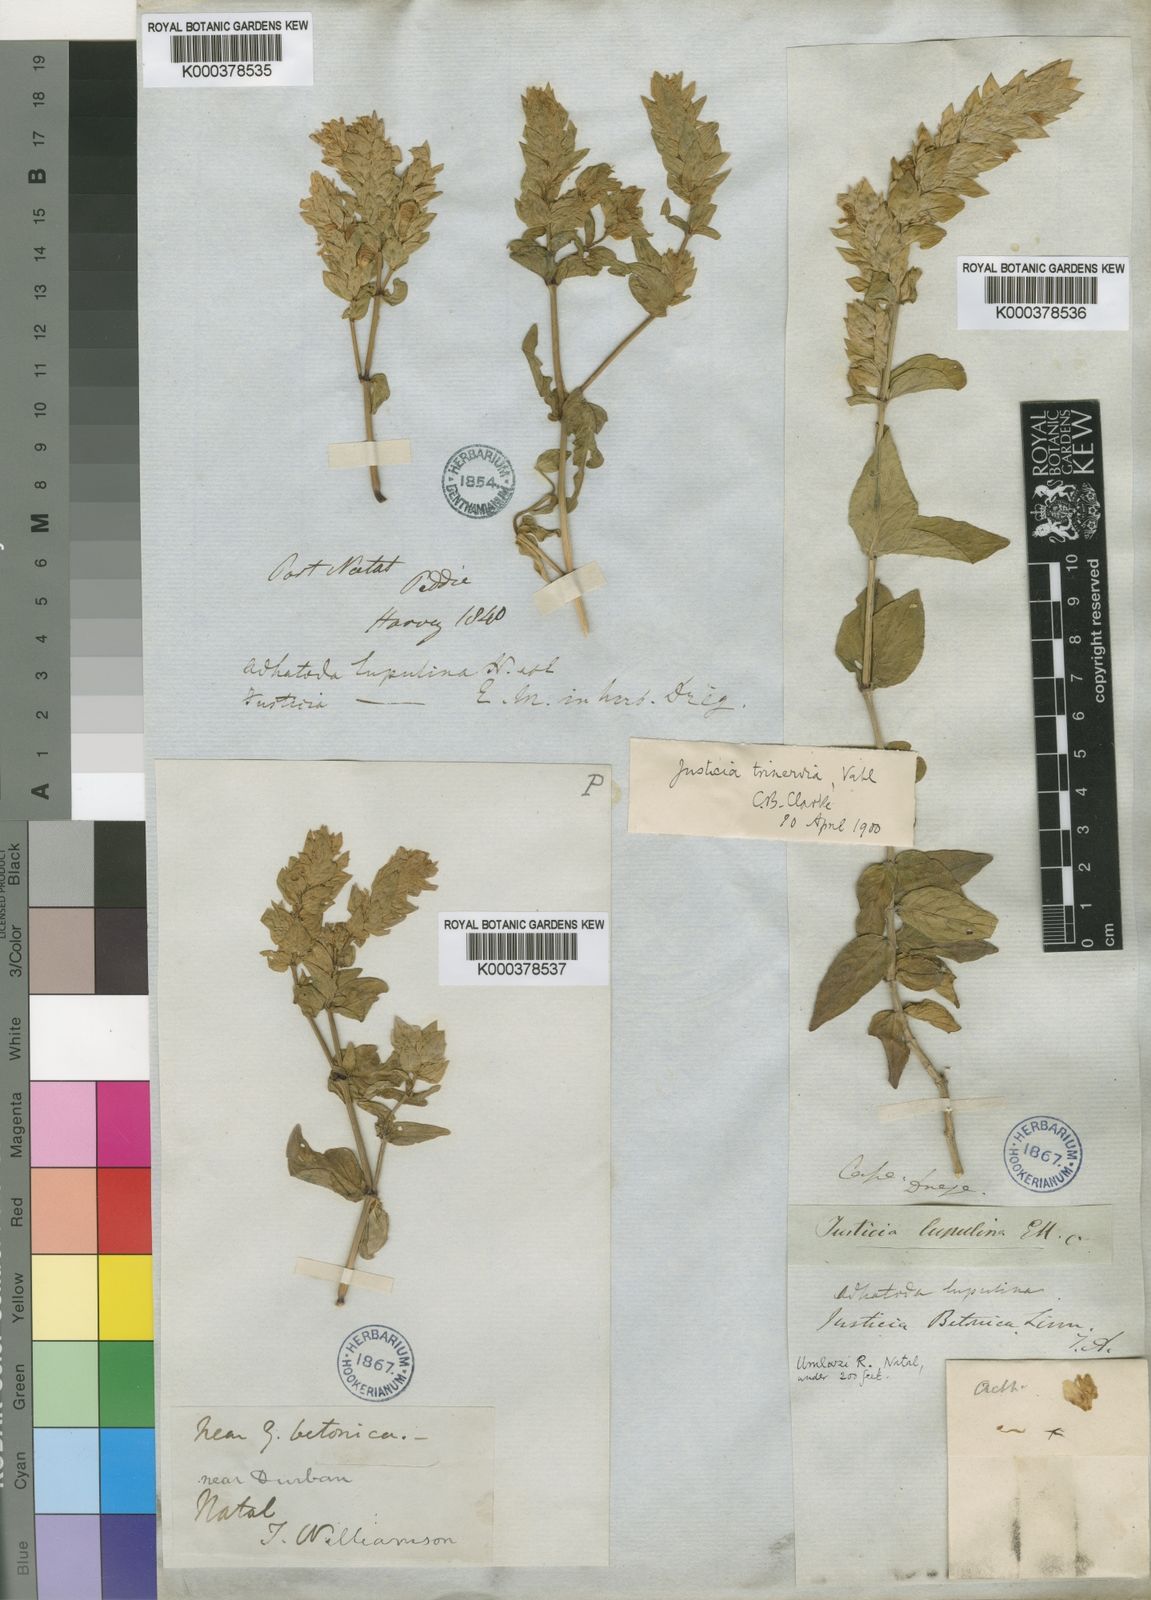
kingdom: Plantae
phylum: Tracheophyta
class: Magnoliopsida
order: Lamiales
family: Acanthaceae
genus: Nicoteba
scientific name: Nicoteba betonica
